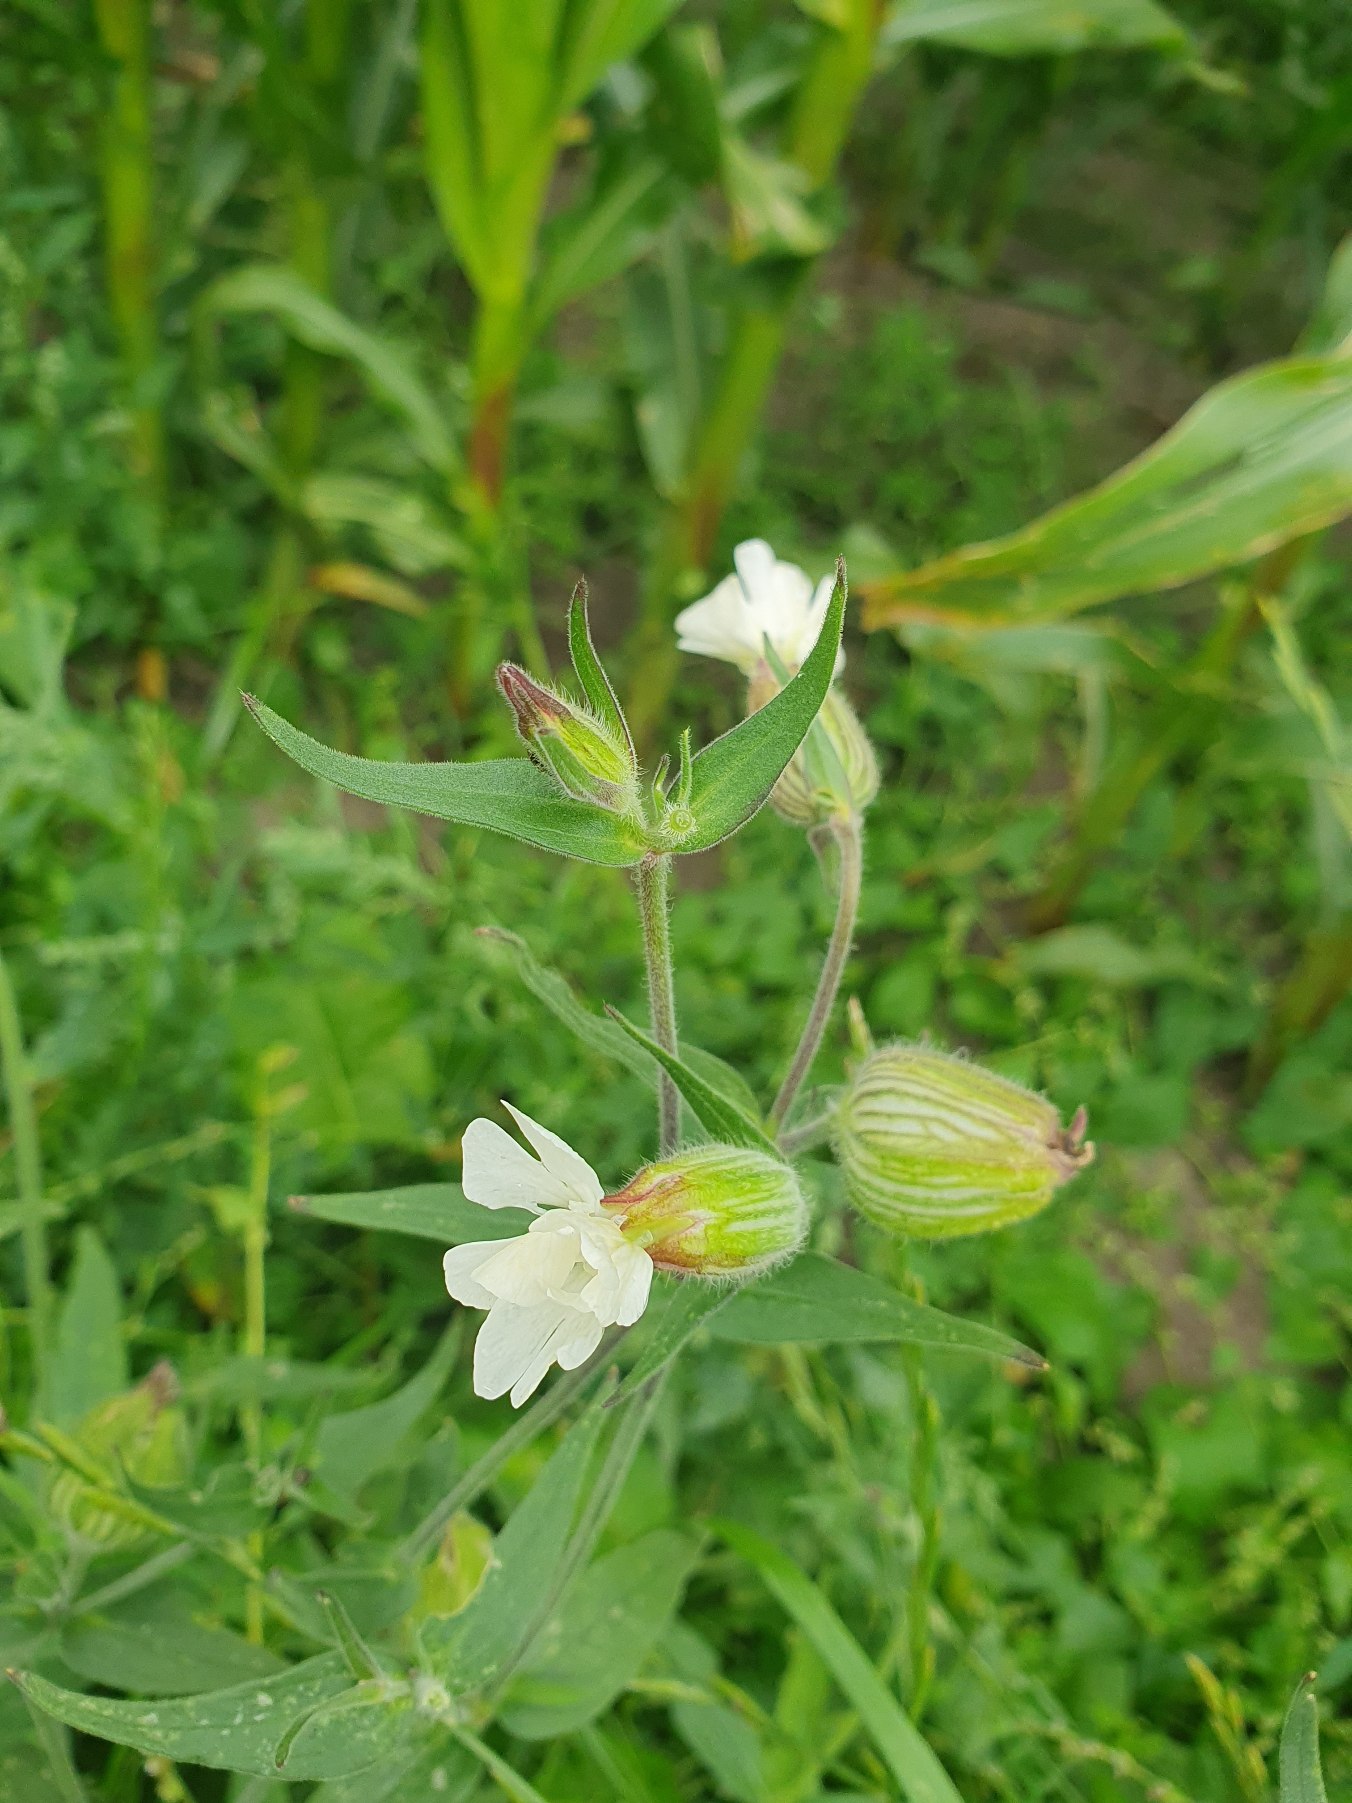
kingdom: Plantae
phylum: Tracheophyta
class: Magnoliopsida
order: Caryophyllales
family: Caryophyllaceae
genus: Silene
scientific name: Silene latifolia
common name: Aftenpragtstjerne
